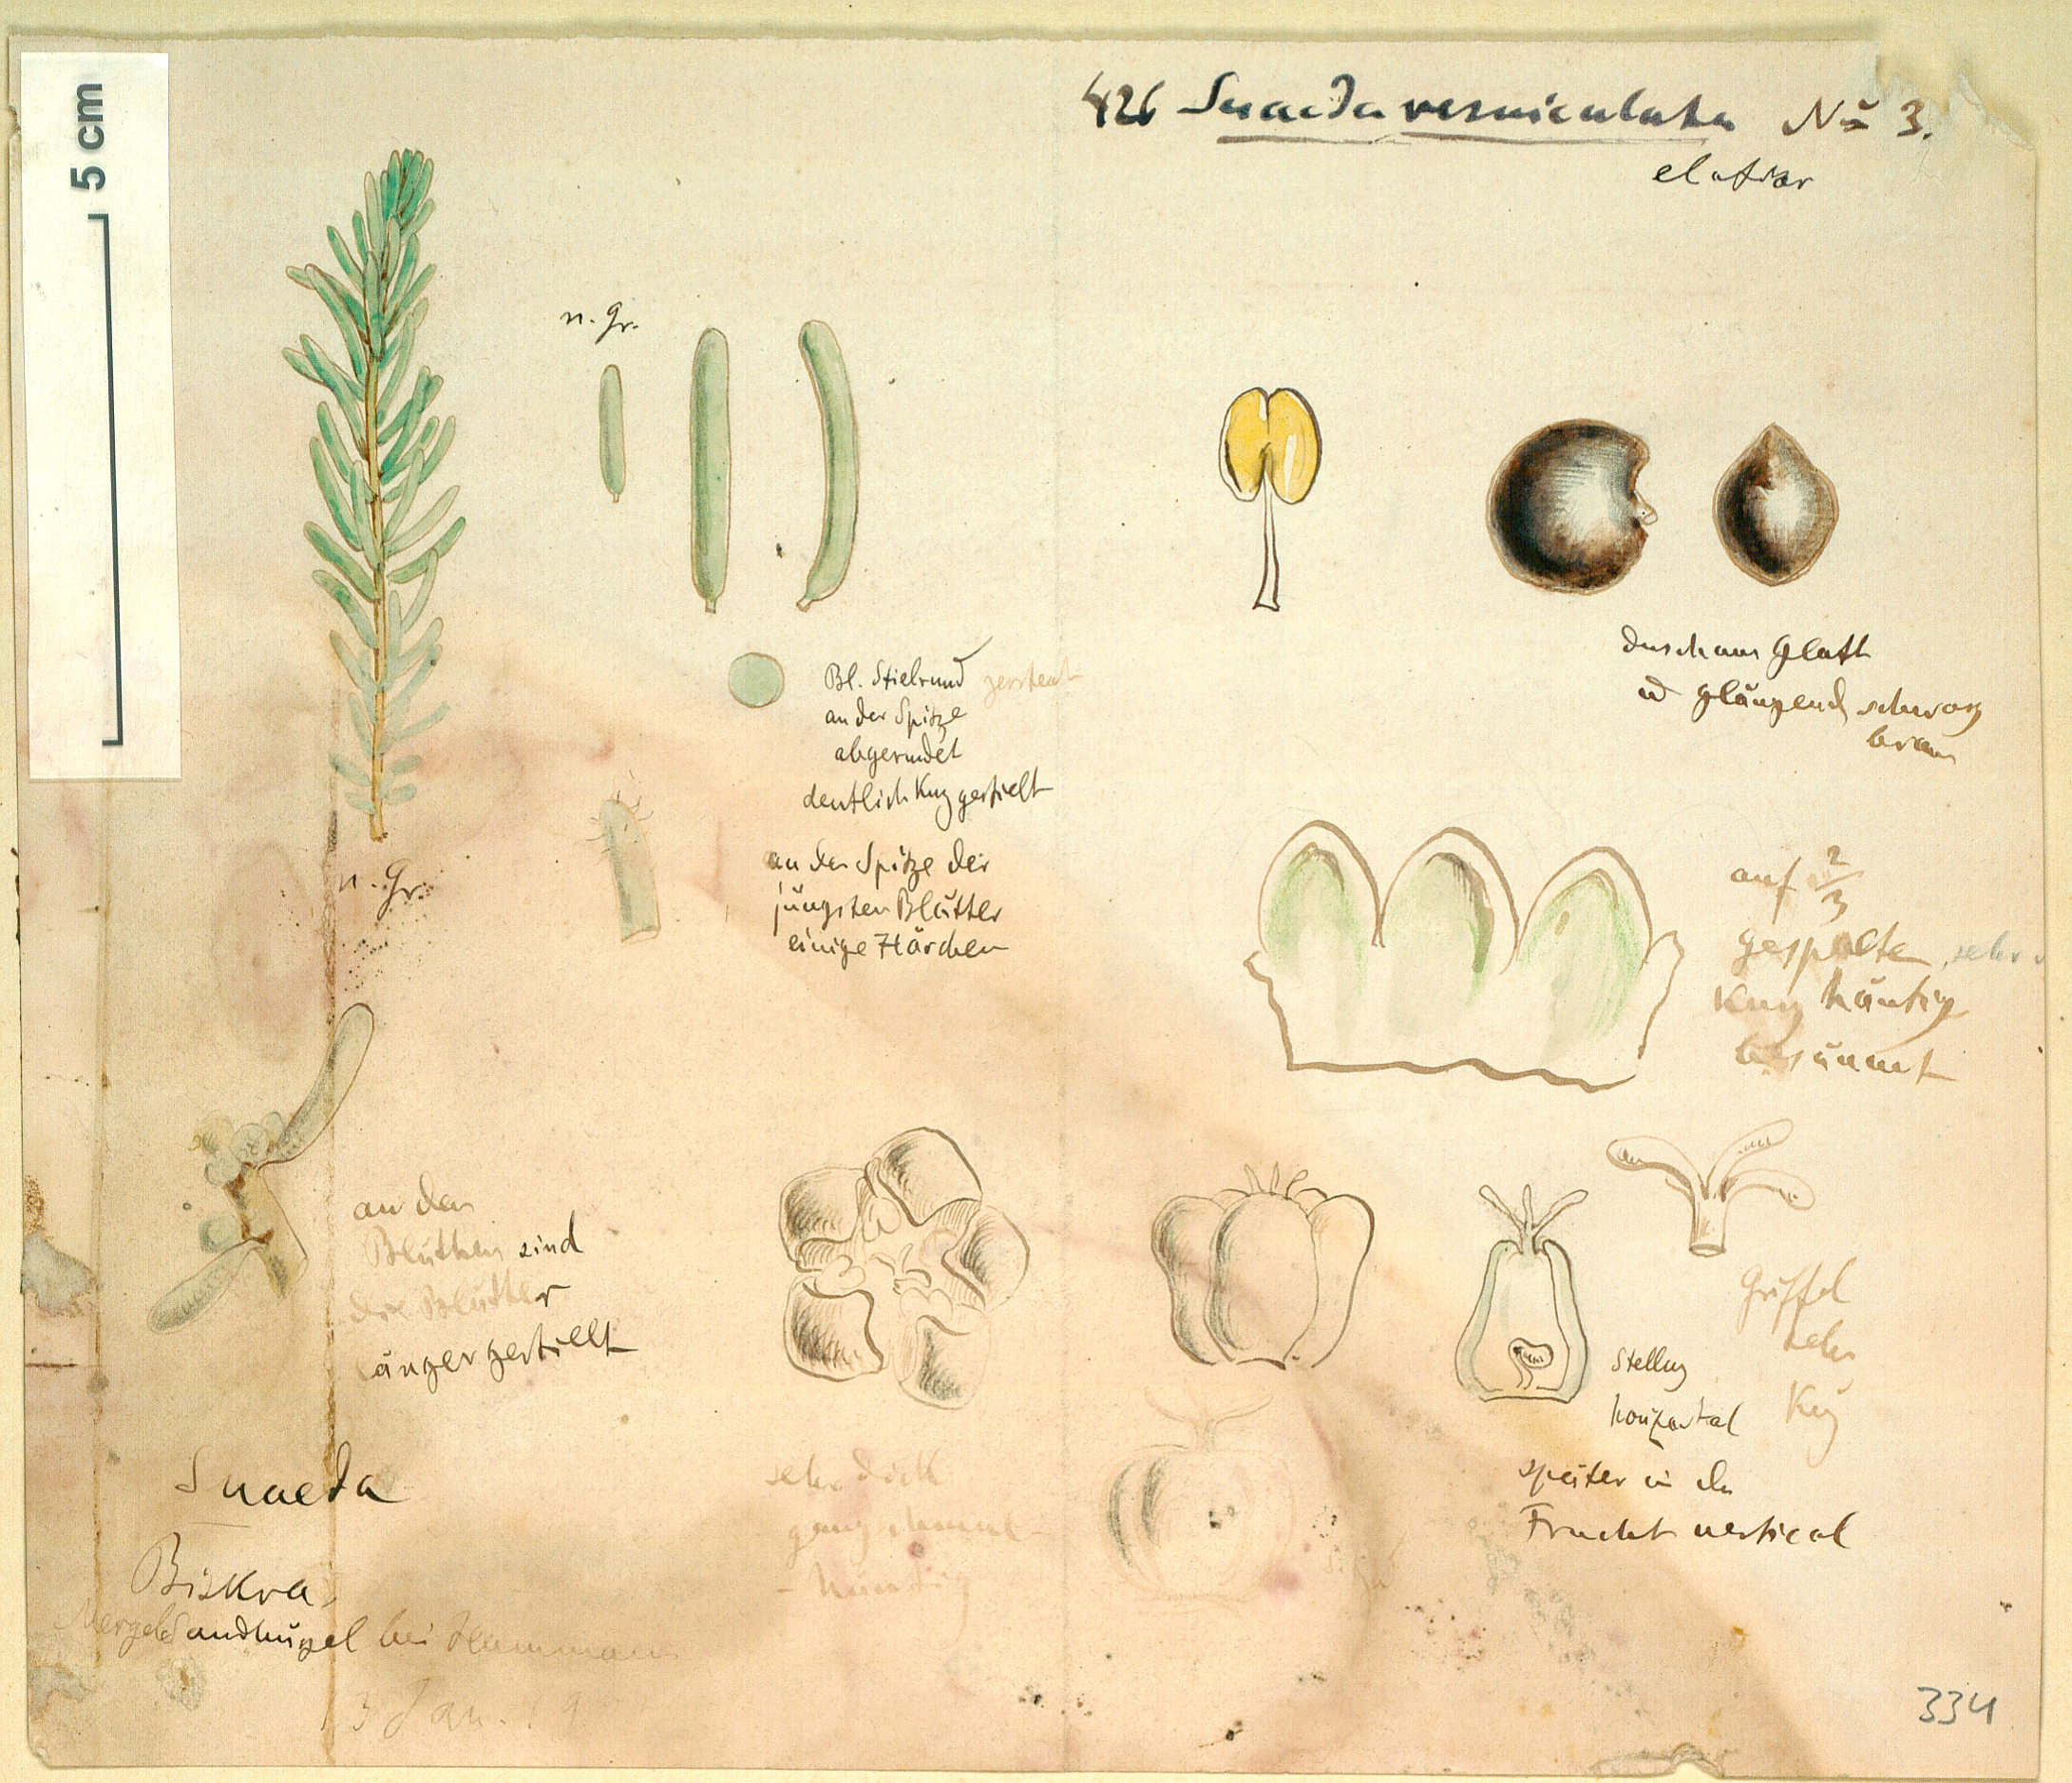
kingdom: Plantae
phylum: Tracheophyta
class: Magnoliopsida
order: Caryophyllales
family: Amaranthaceae
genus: Suaeda
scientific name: Suaeda vermiculata
